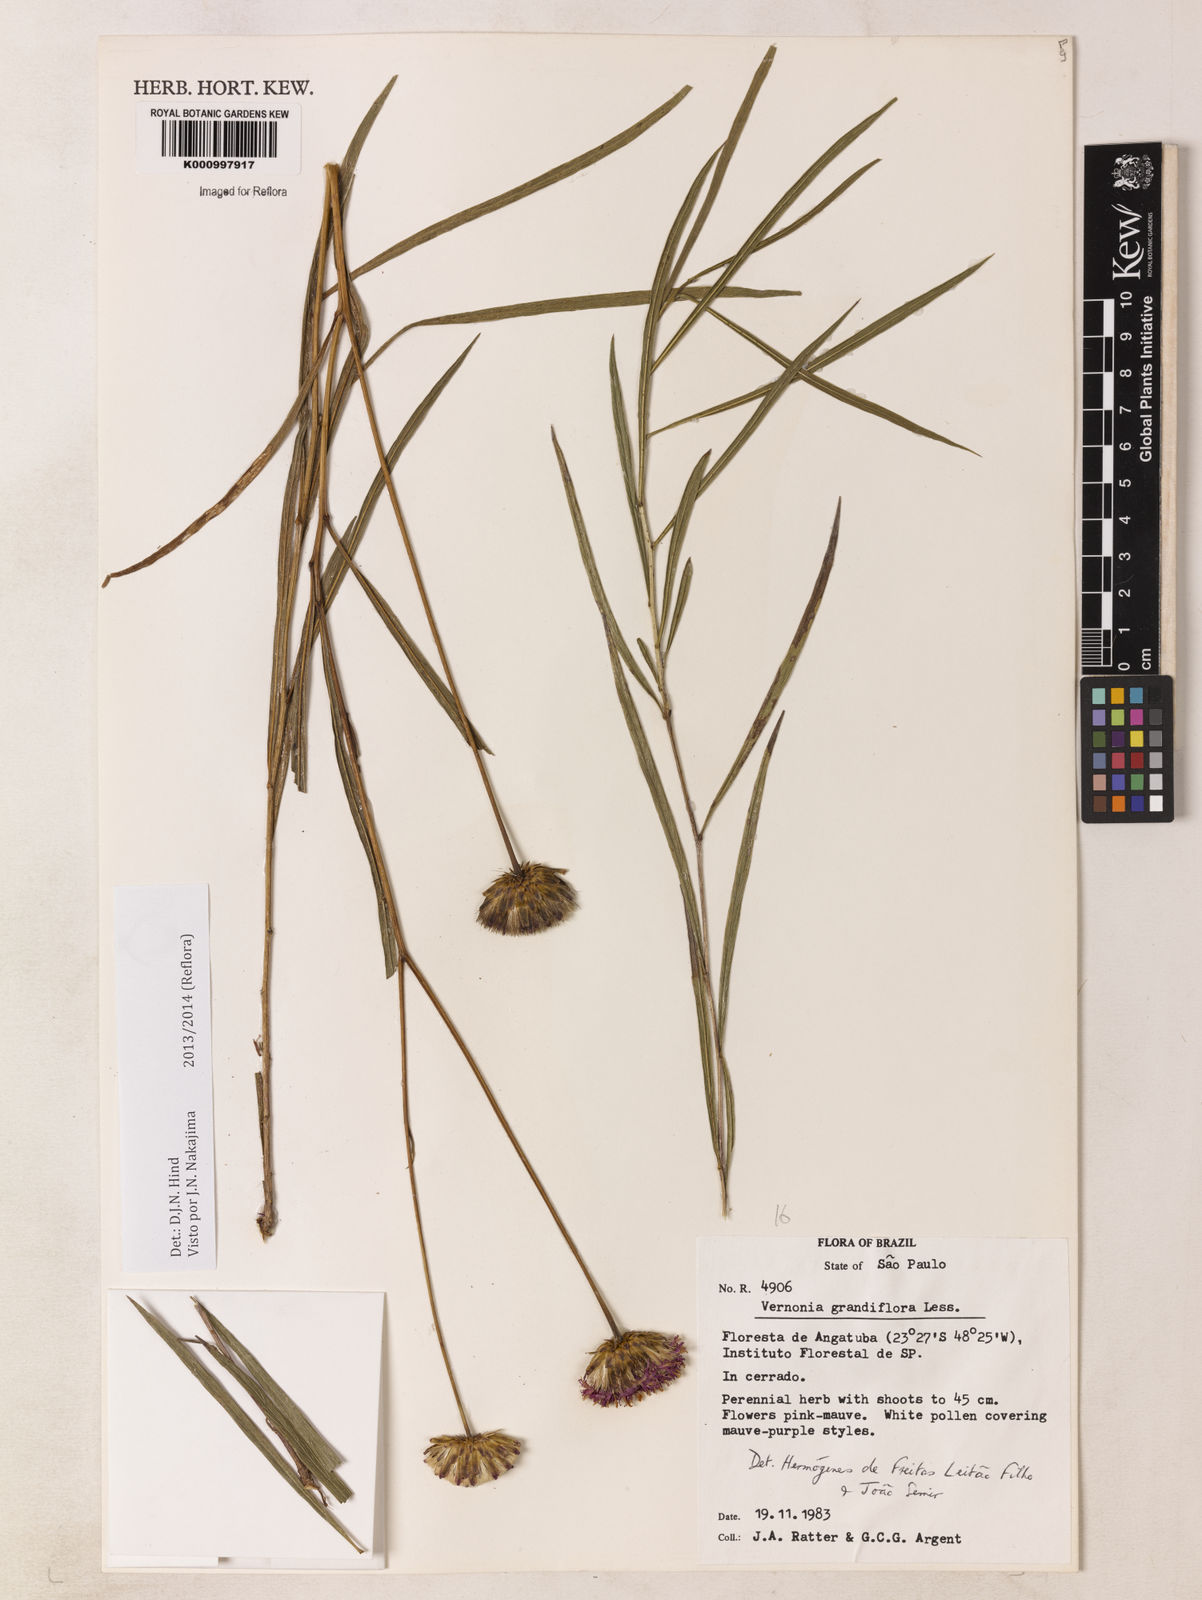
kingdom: Plantae
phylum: Tracheophyta
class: Magnoliopsida
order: Asterales
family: Asteraceae
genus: Lessingianthus
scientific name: Lessingianthus grandiflorus
